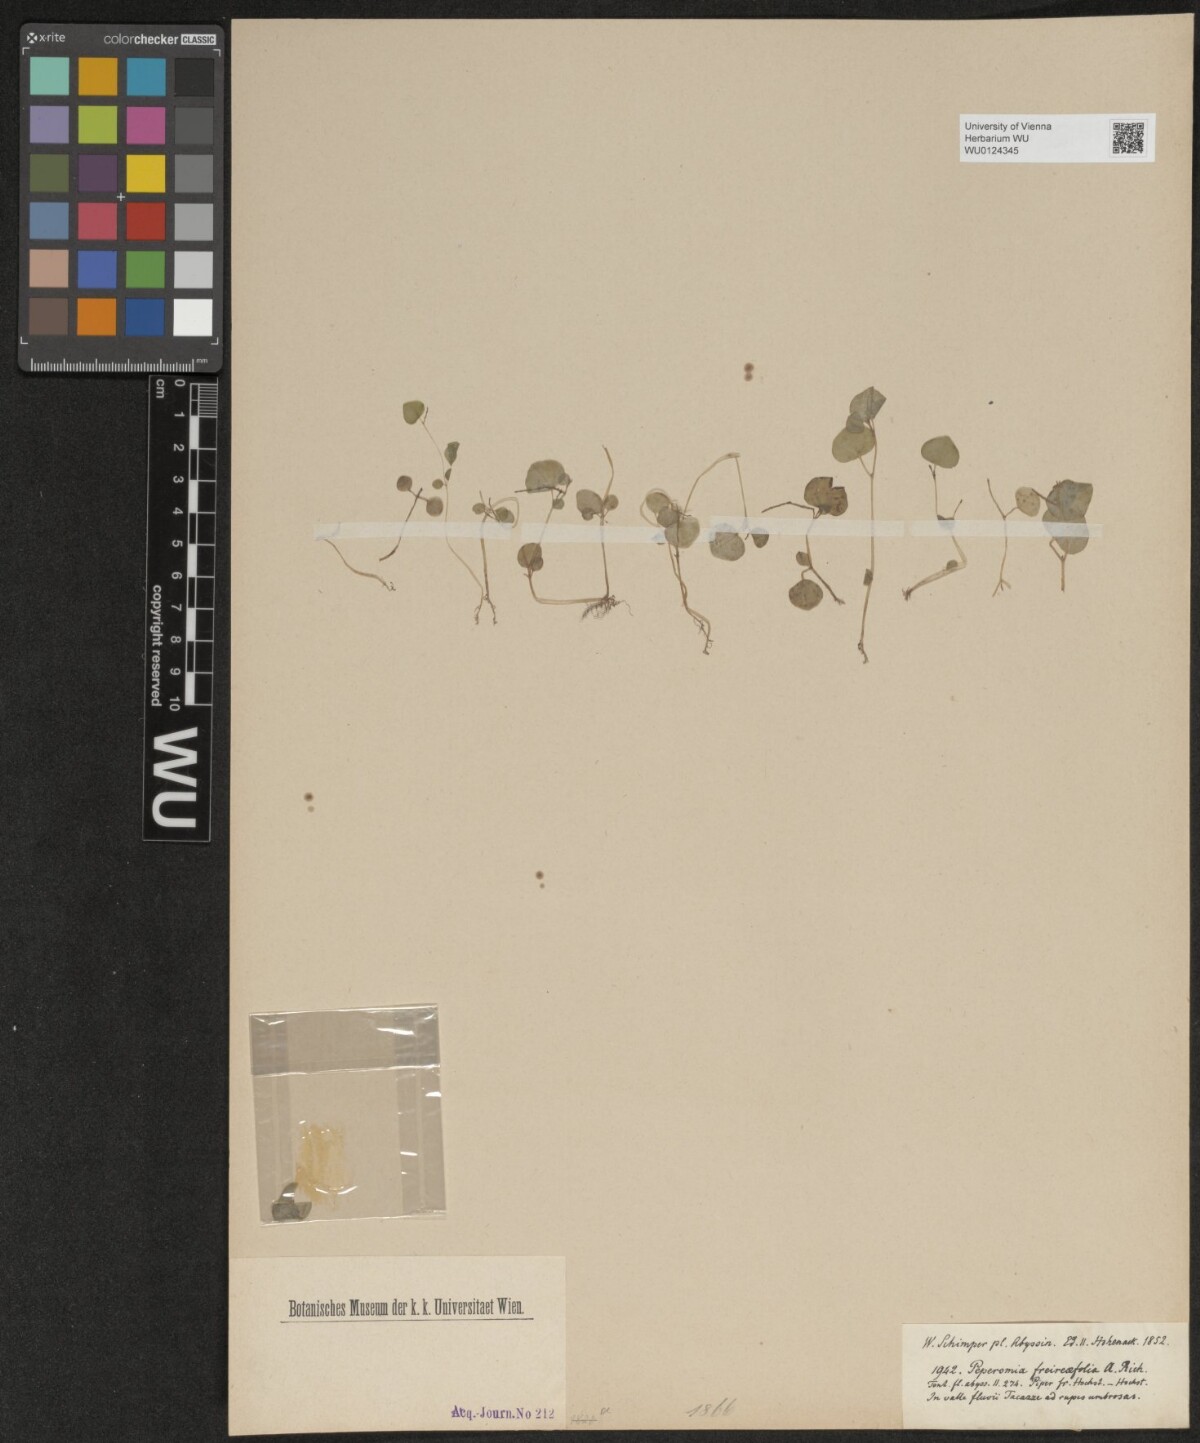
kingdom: Plantae
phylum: Tracheophyta
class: Magnoliopsida
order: Piperales
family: Piperaceae
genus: Peperomia
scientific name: Peperomia pellucida
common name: Man to man
